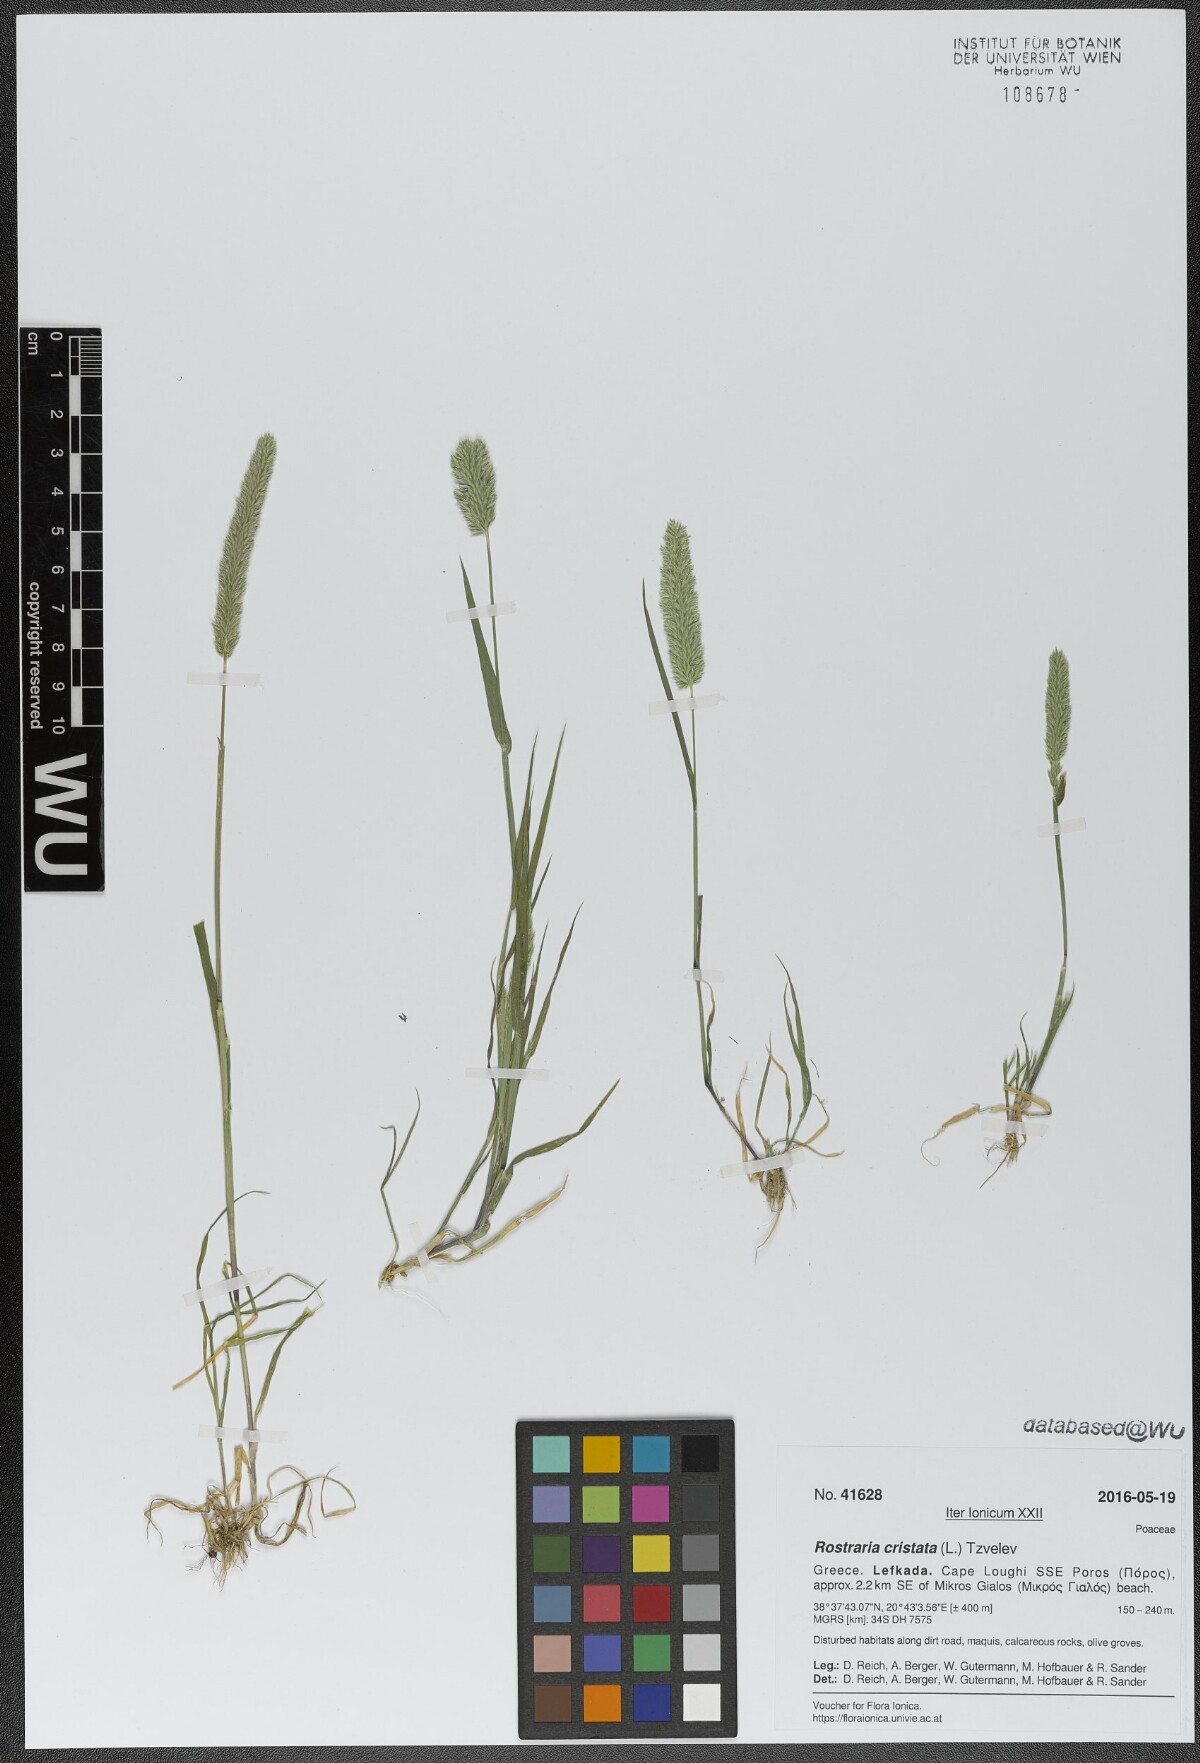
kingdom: Plantae
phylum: Tracheophyta
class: Liliopsida
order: Poales
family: Poaceae
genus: Rostraria
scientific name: Rostraria cristata
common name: Mediterranean hair-grass
